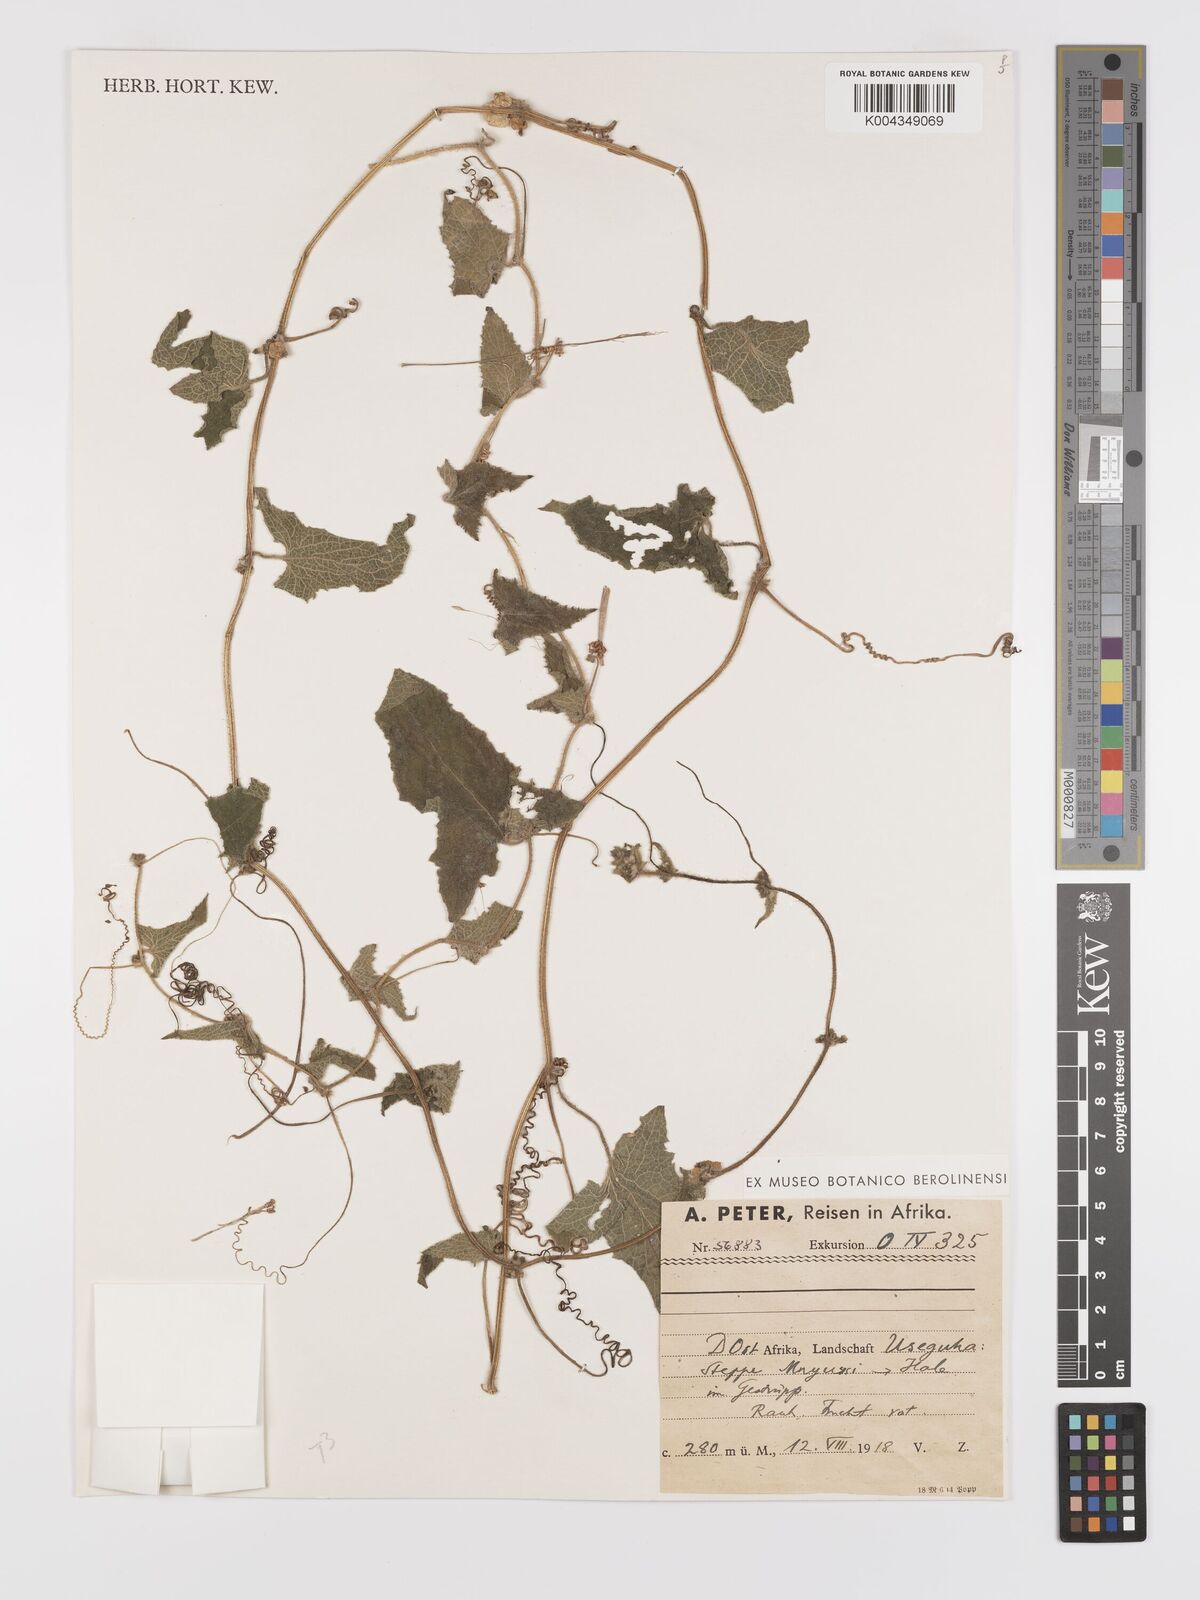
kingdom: Plantae
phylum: Tracheophyta
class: Magnoliopsida
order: Cucurbitales
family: Cucurbitaceae
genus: Cucumis
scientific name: Cucumis maderaspatanus
